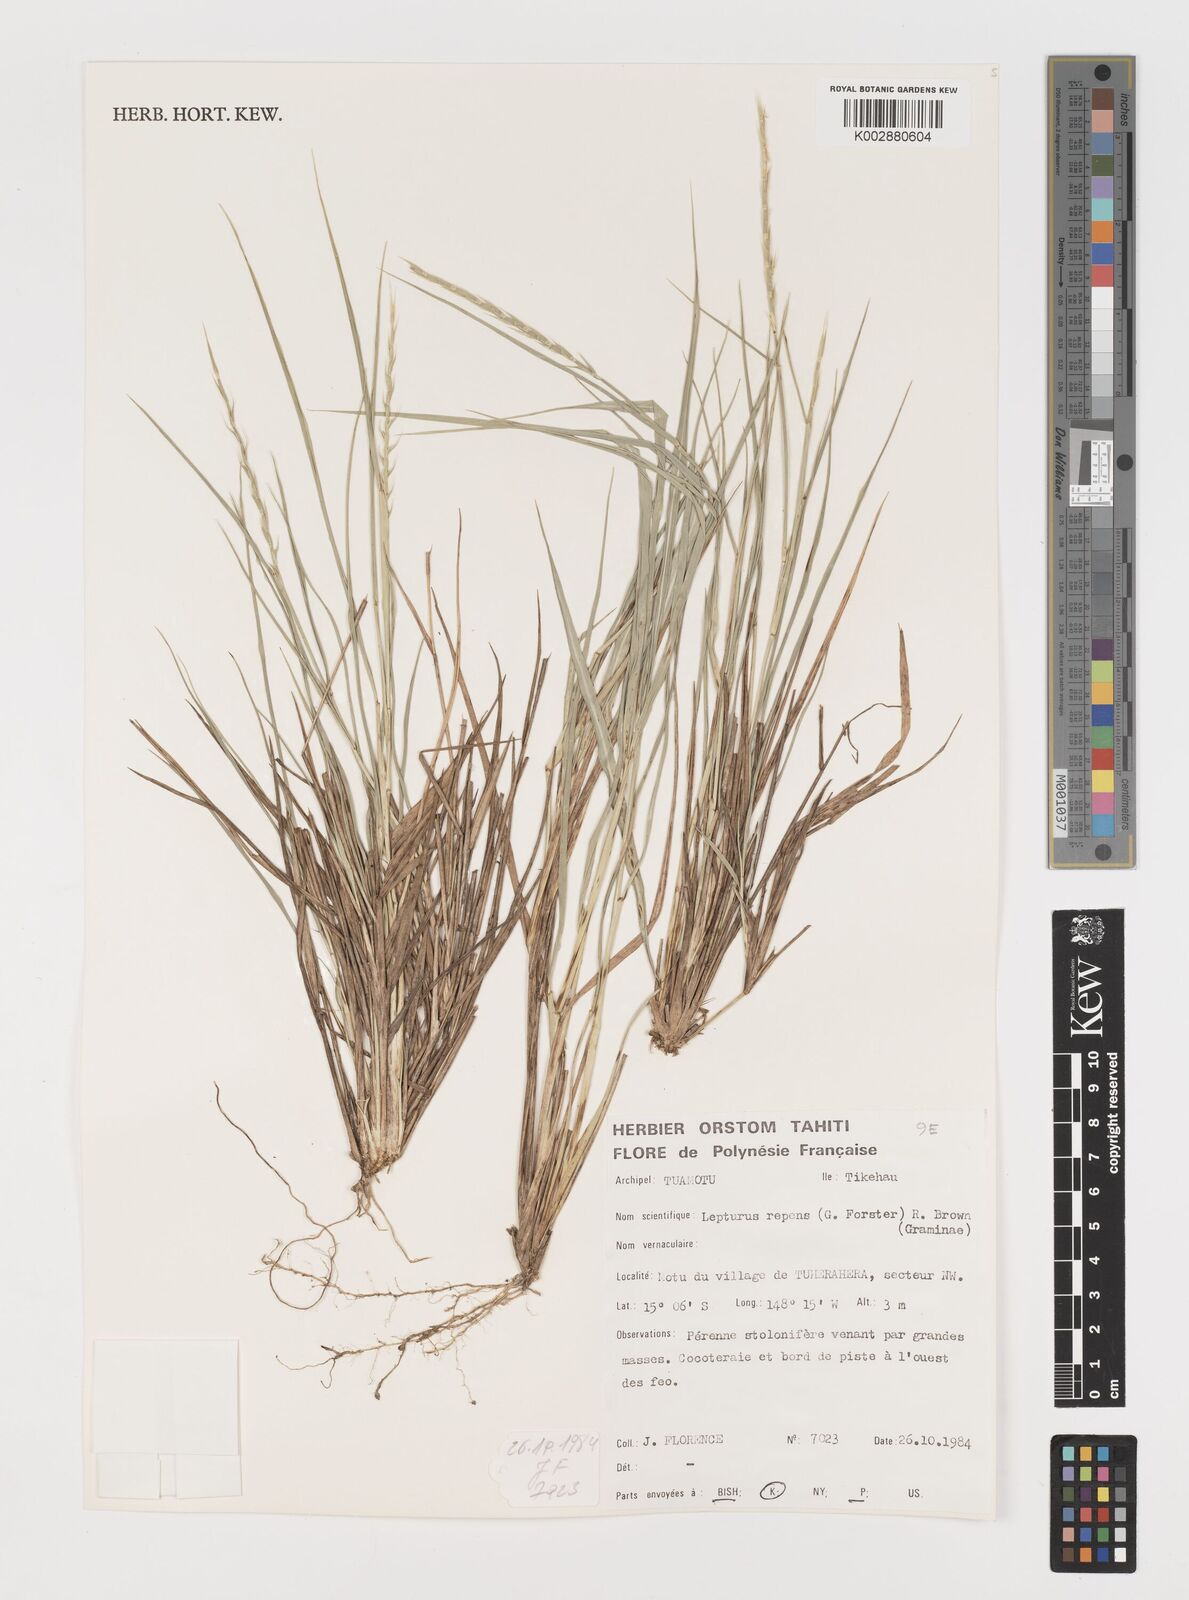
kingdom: Plantae
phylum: Tracheophyta
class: Liliopsida
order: Poales
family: Poaceae
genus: Lepturus
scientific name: Lepturus repens
